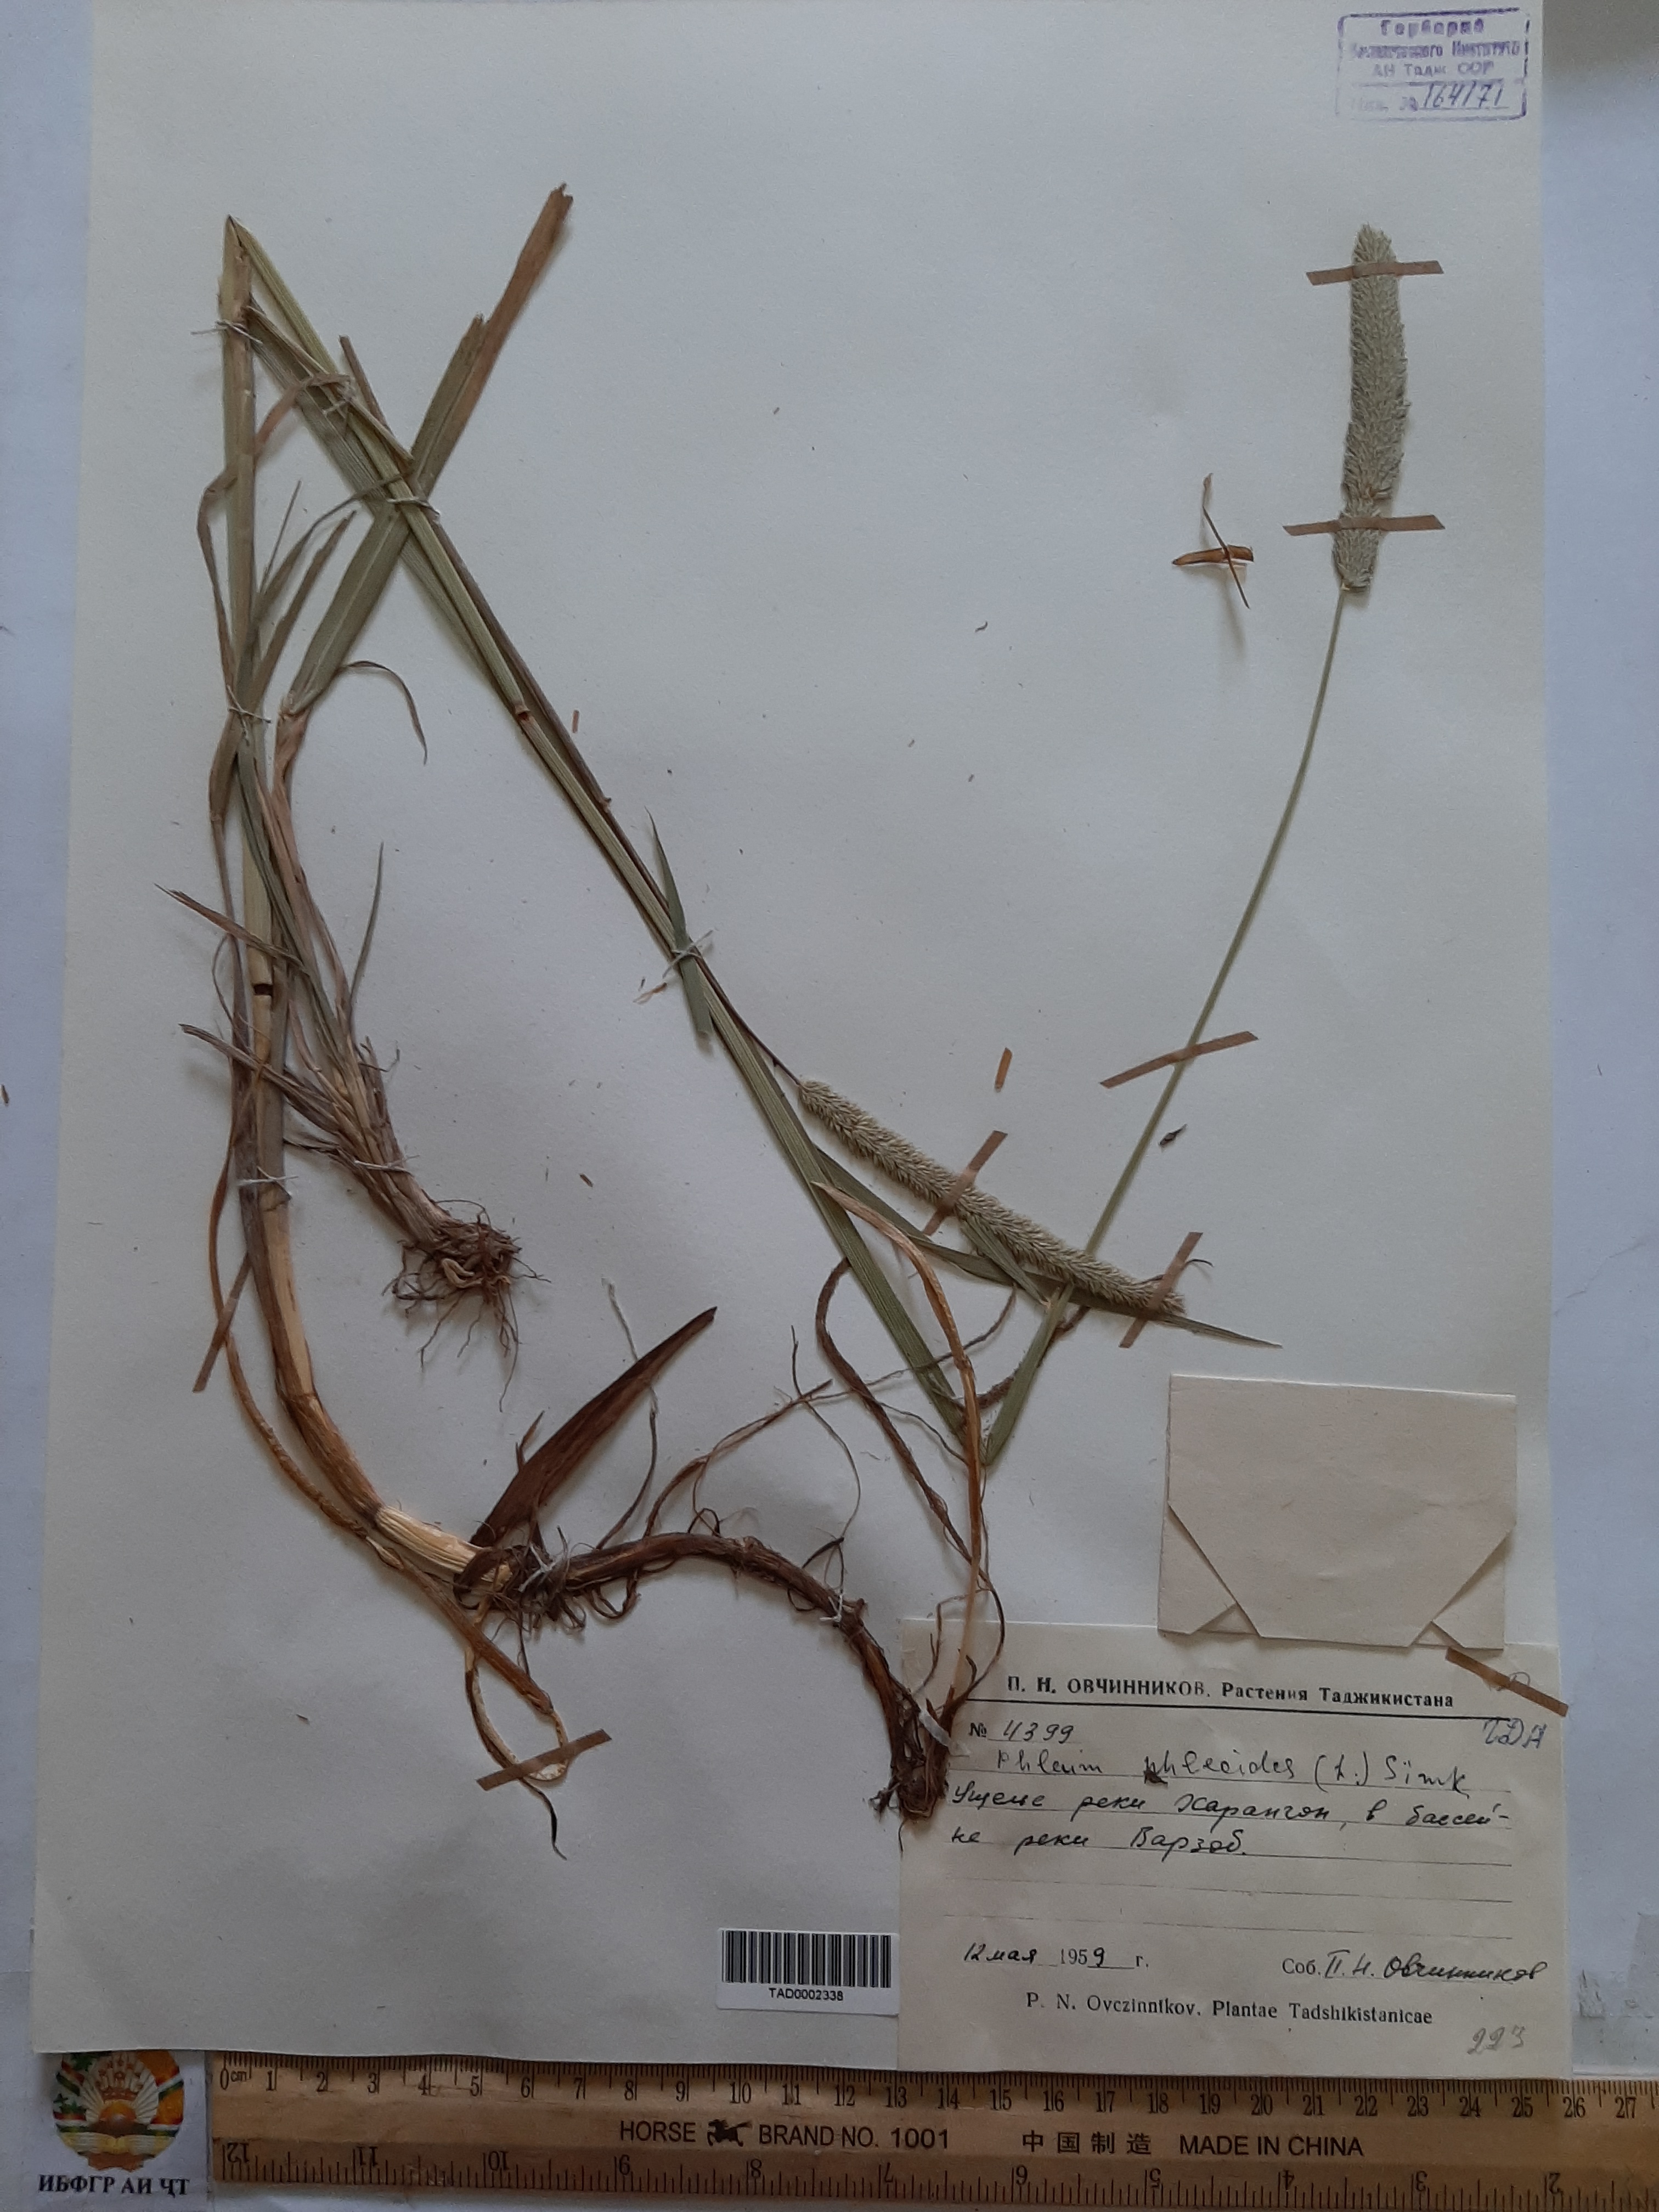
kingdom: Plantae
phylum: Tracheophyta
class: Liliopsida
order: Poales
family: Poaceae
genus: Phleum
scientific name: Phleum phleoides
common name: Purple-stem cat's-tail
